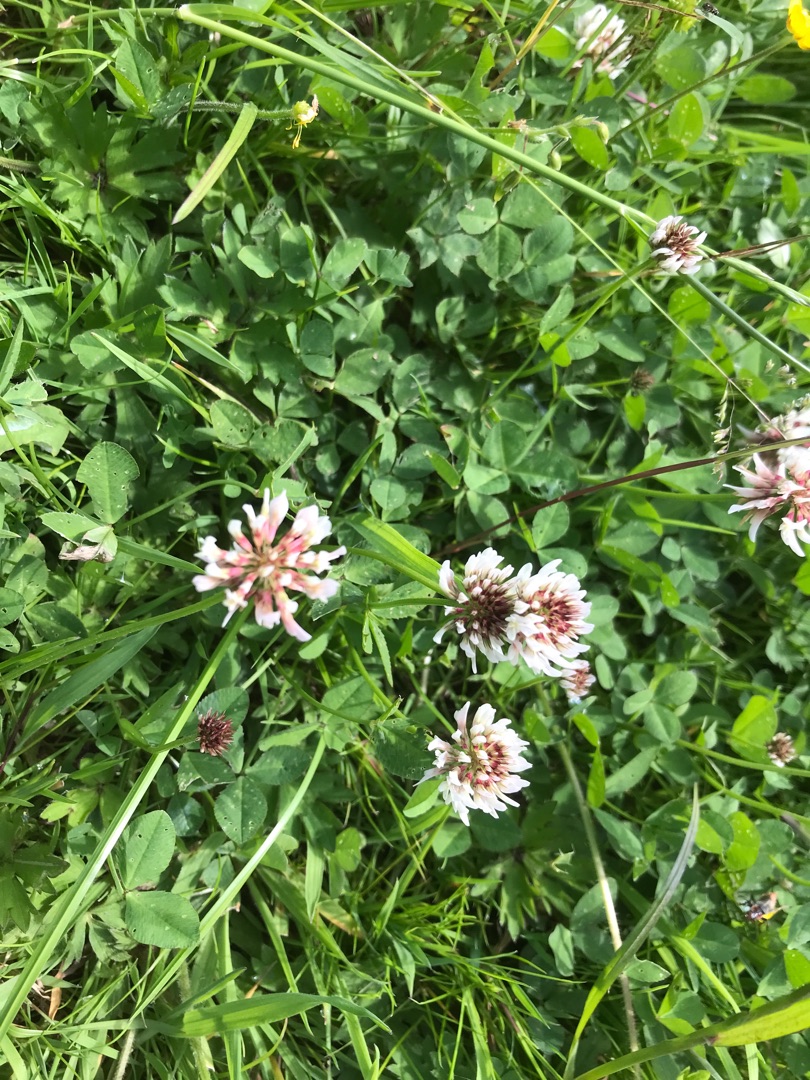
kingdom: Plantae
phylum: Tracheophyta
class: Magnoliopsida
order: Fabales
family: Fabaceae
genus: Trifolium
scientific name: Trifolium repens
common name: Hvid-kløver
